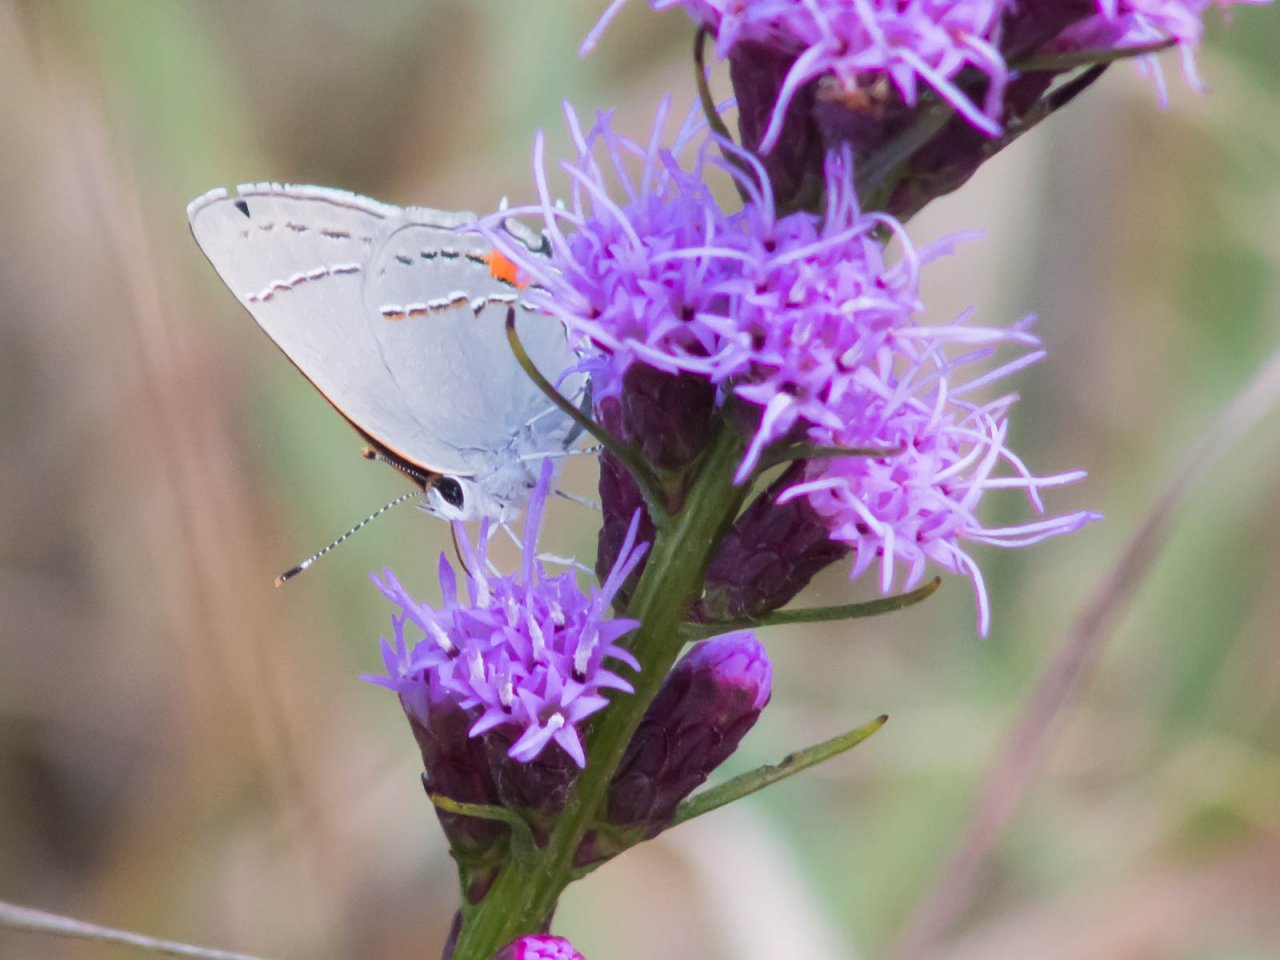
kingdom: Animalia
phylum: Arthropoda
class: Insecta
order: Lepidoptera
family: Lycaenidae
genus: Strymon
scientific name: Strymon melinus
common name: Gray Hairstreak
